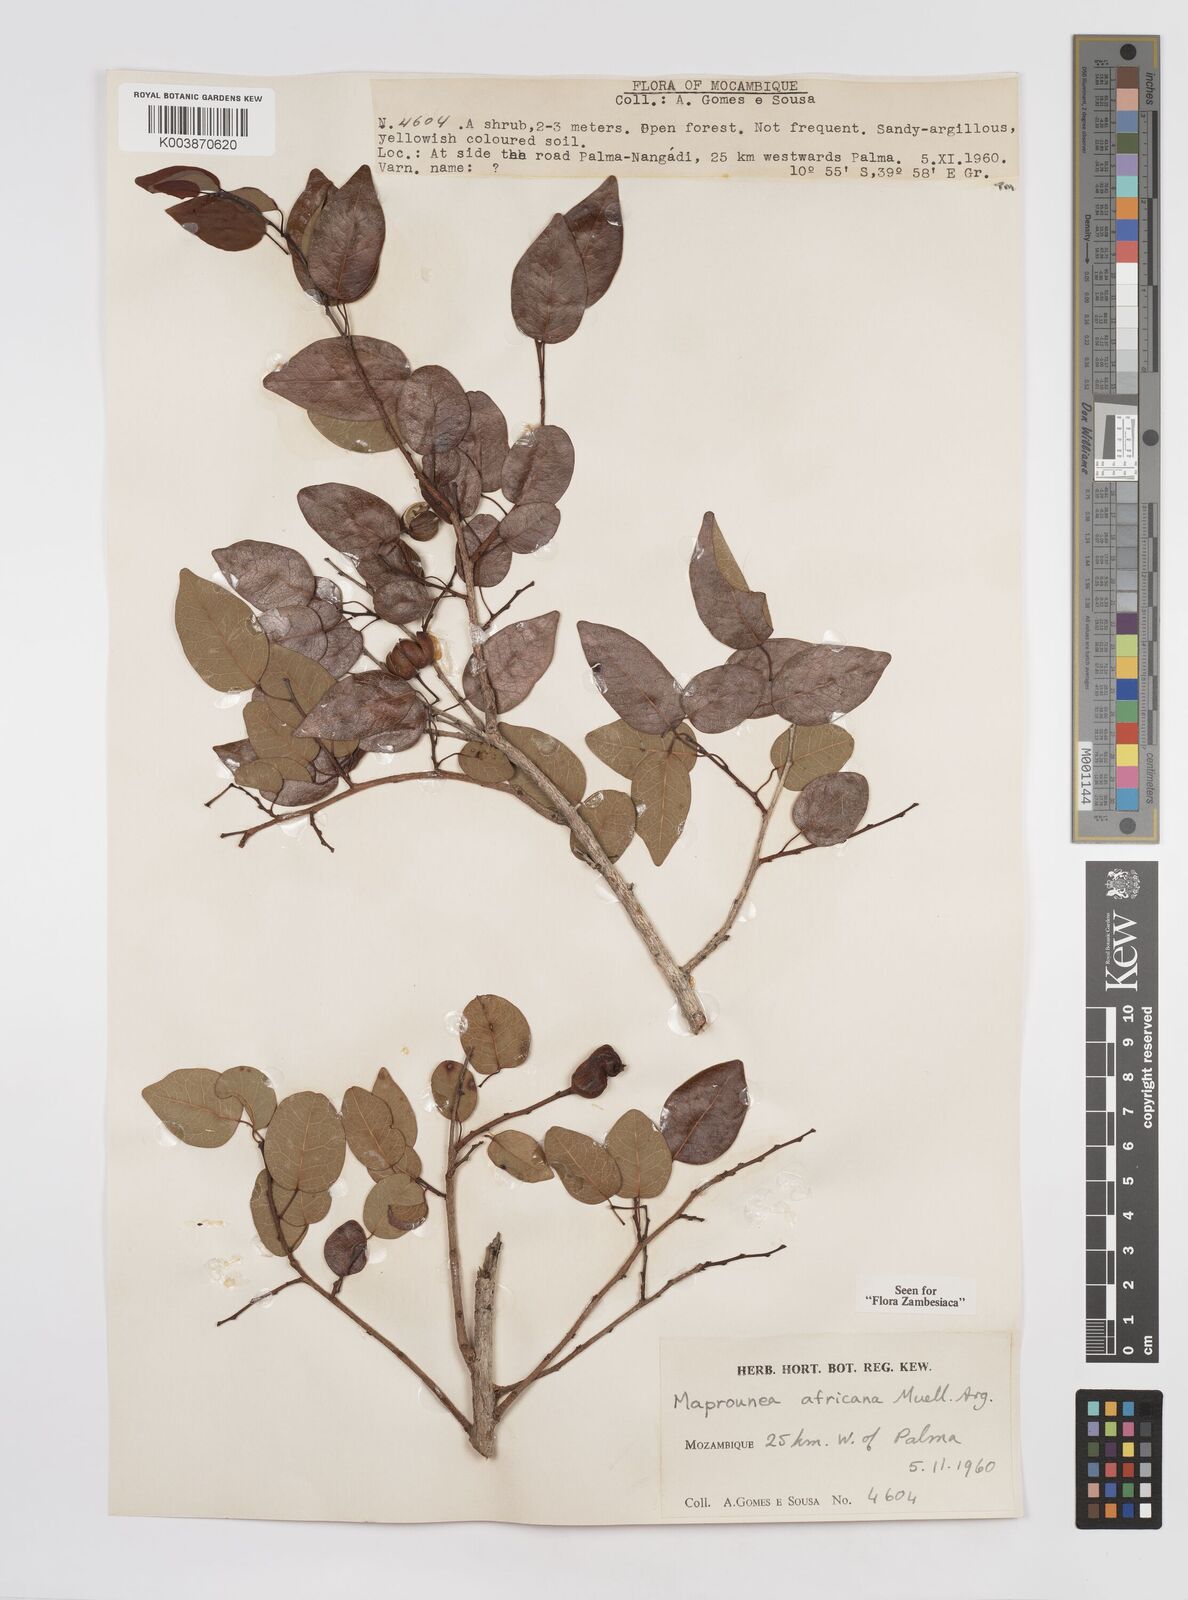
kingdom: Plantae
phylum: Tracheophyta
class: Magnoliopsida
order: Malpighiales
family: Euphorbiaceae
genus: Maprounea
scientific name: Maprounea africana
